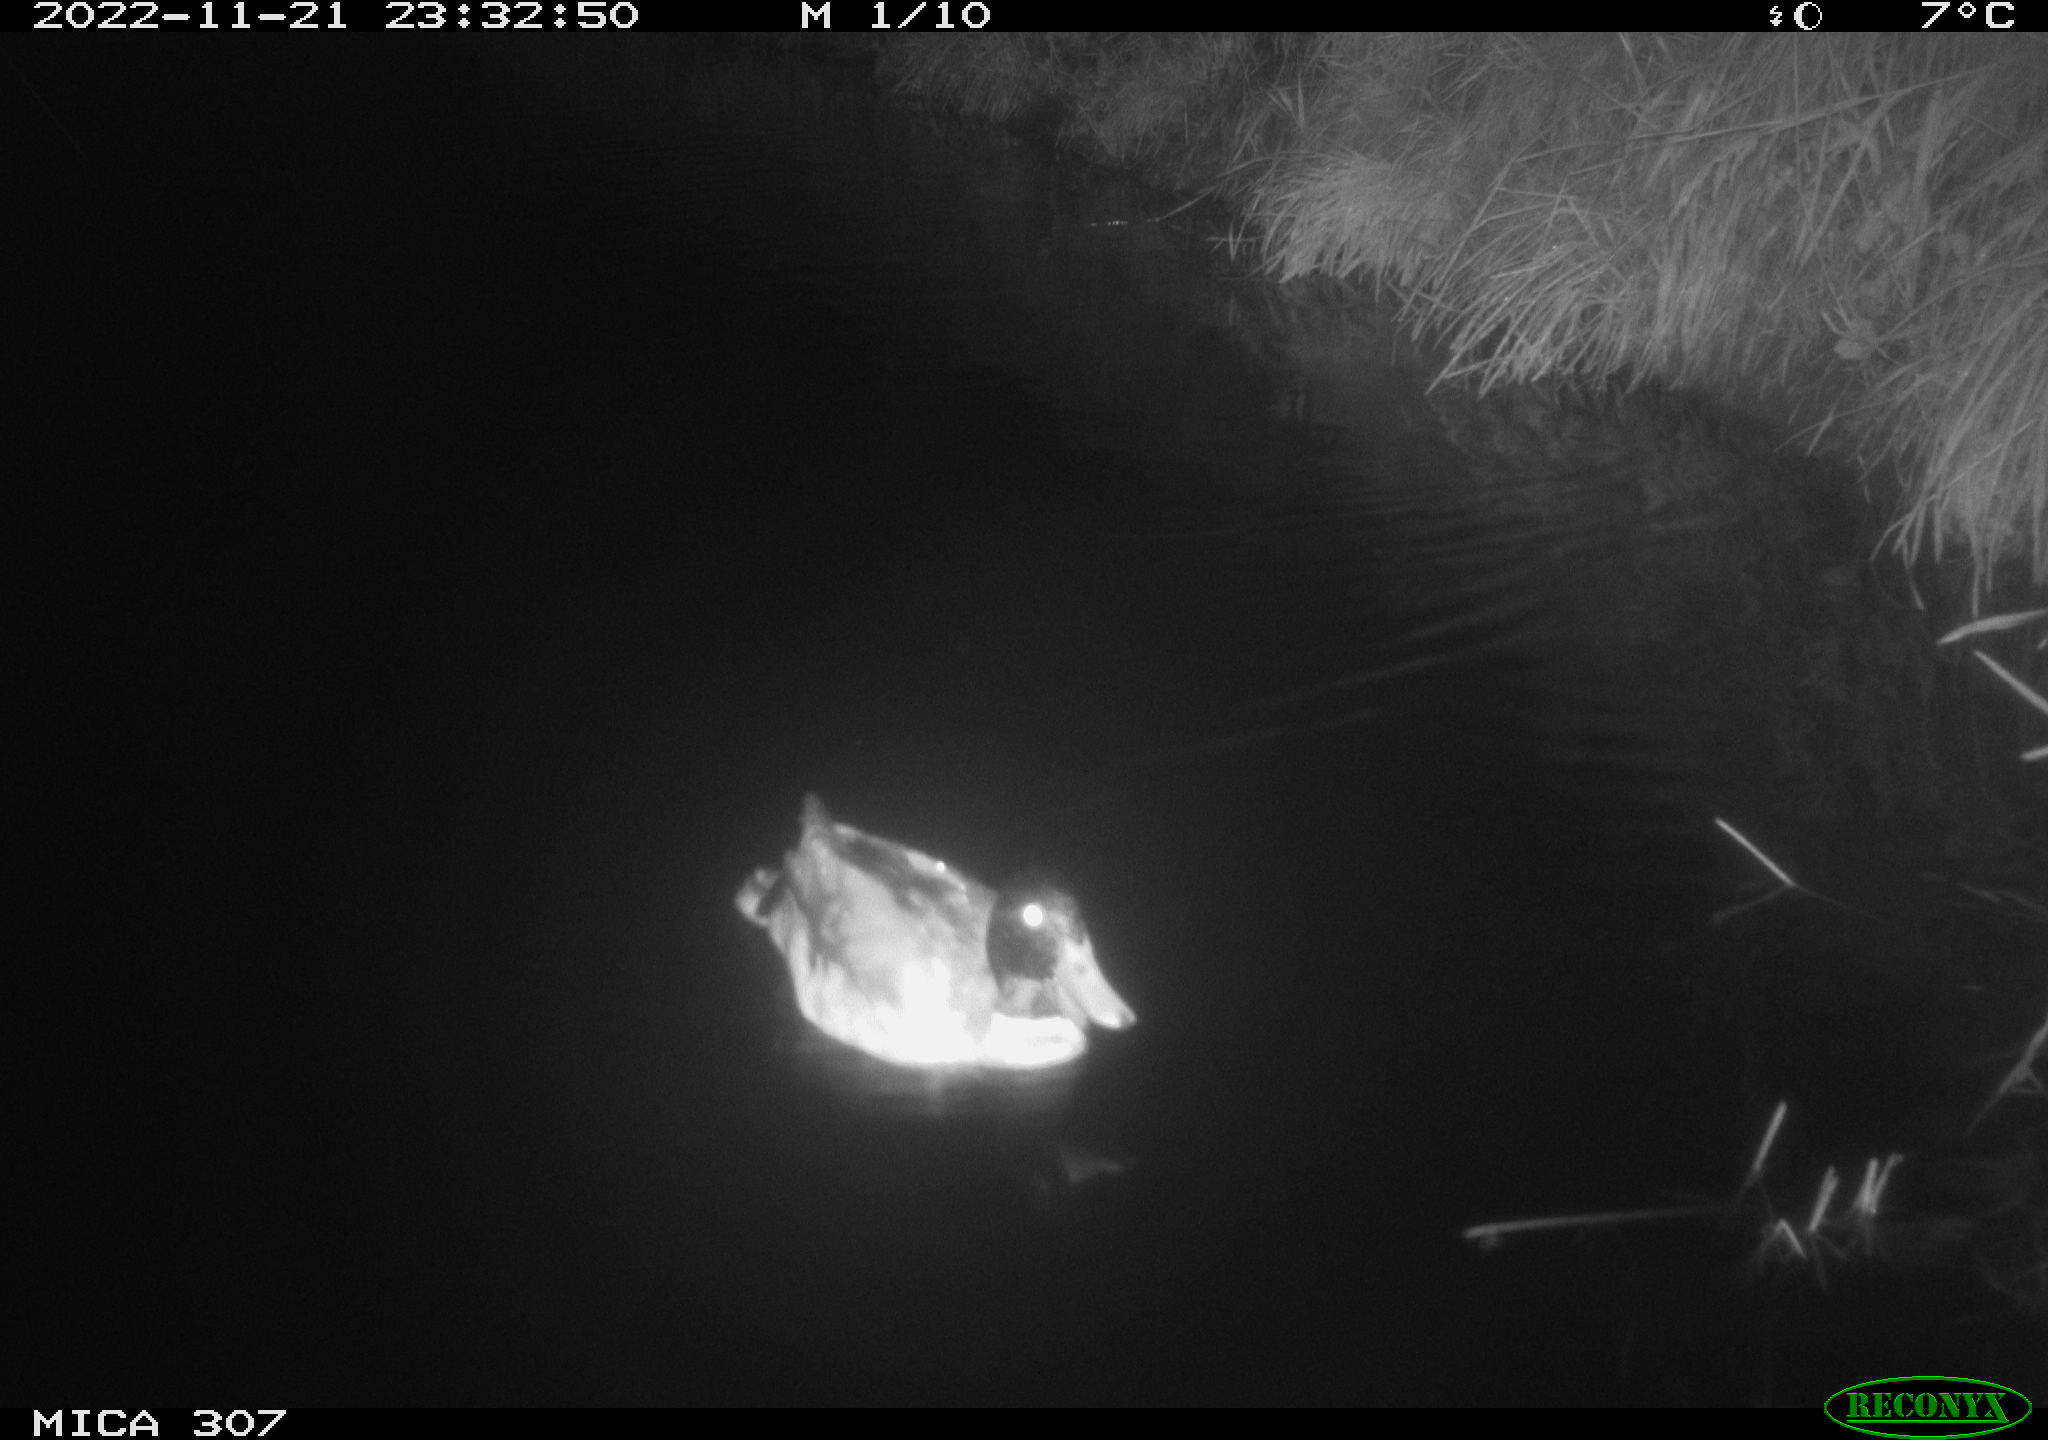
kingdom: Animalia
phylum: Chordata
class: Aves
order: Anseriformes
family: Anatidae
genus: Anas
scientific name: Anas
